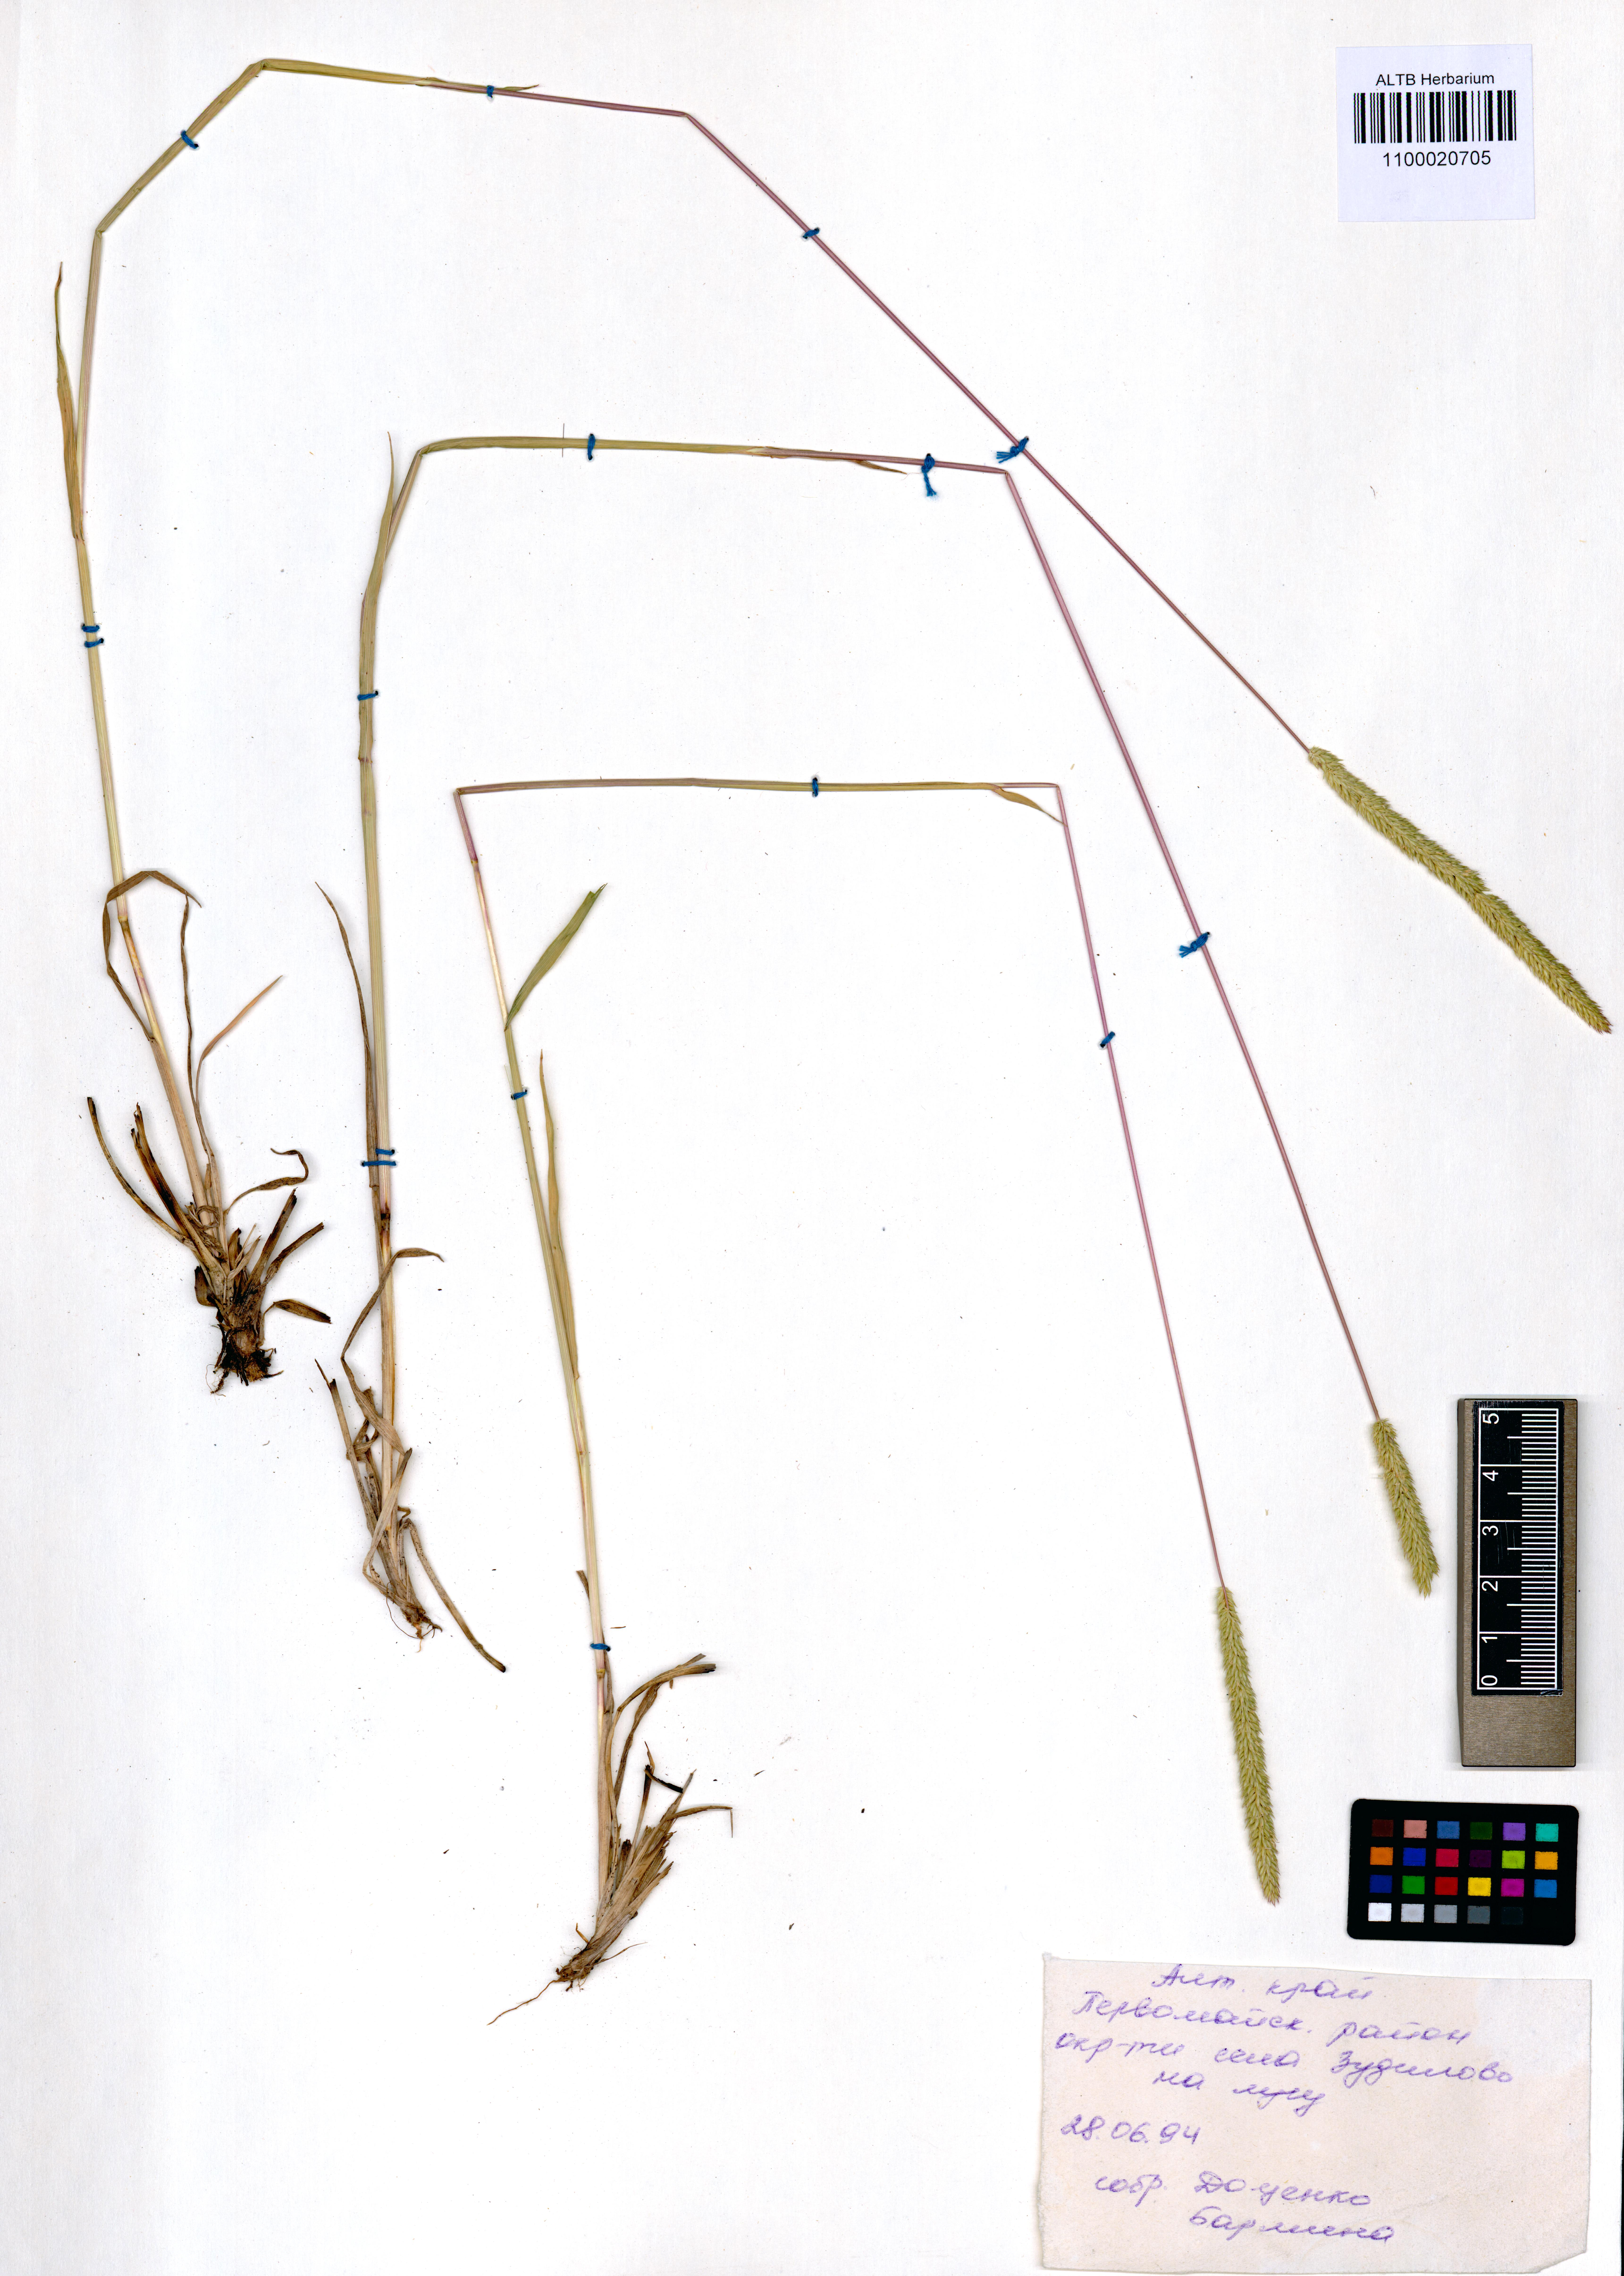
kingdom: Plantae
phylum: Tracheophyta
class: Liliopsida
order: Poales
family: Poaceae
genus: Phleum
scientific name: Phleum phleoides
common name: Purple-stem cat's-tail
